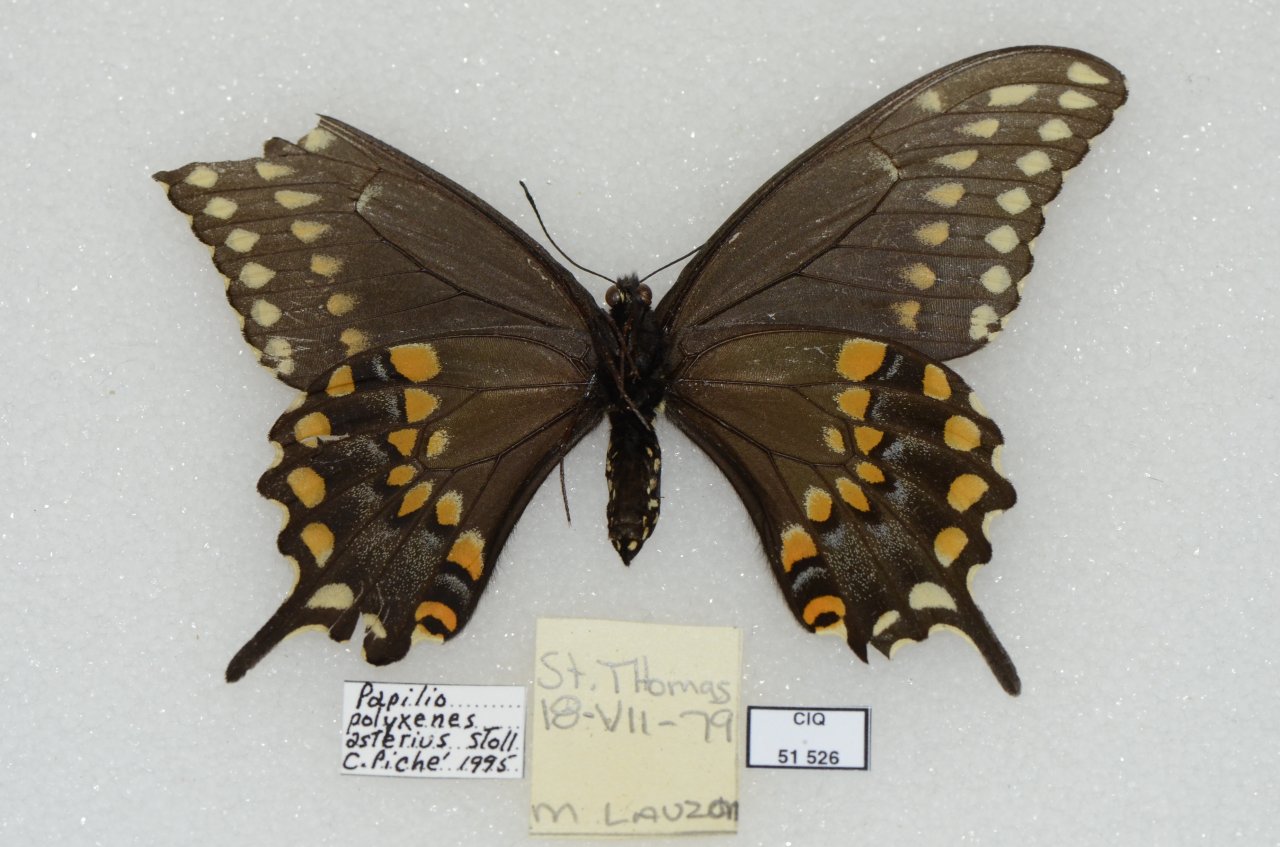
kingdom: Animalia
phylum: Arthropoda
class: Insecta
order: Lepidoptera
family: Papilionidae
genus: Papilio
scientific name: Papilio polyxenes
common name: Black Swallowtail
